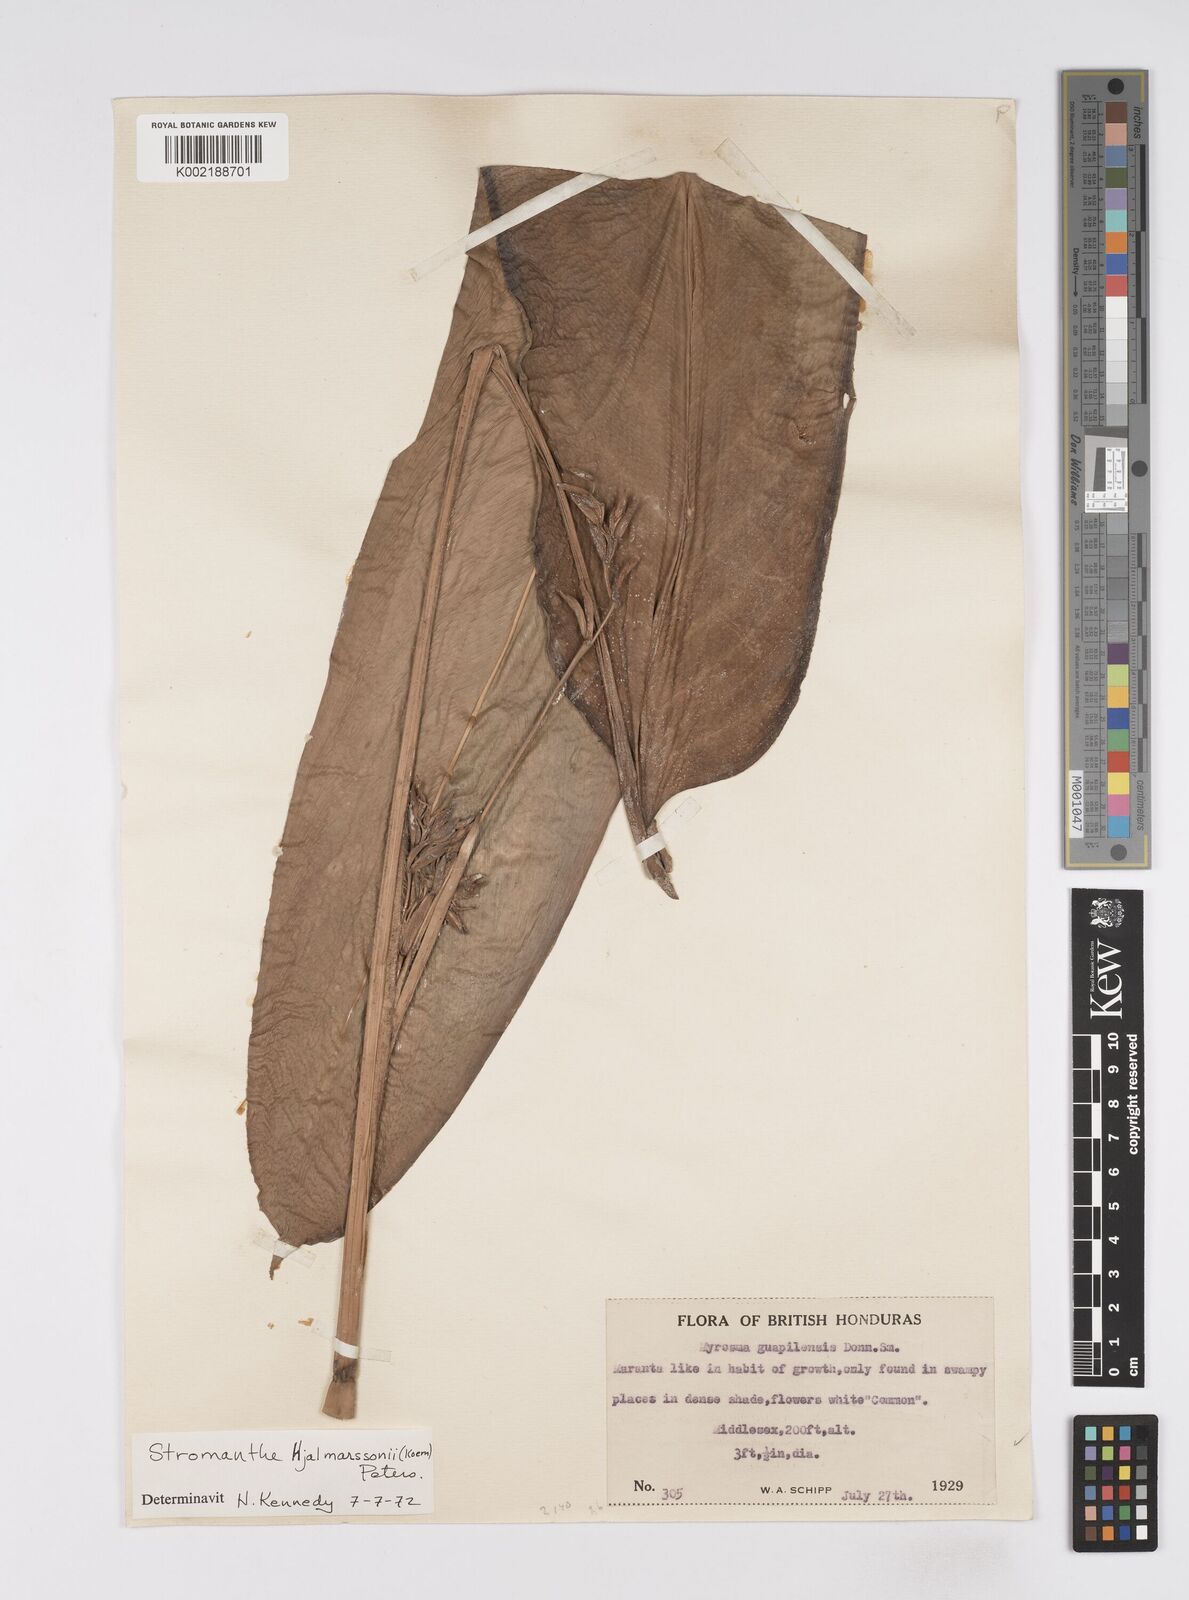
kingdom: Plantae
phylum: Tracheophyta
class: Liliopsida
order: Zingiberales
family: Marantaceae
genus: Stromanthe
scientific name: Stromanthe hjalmarssonii
